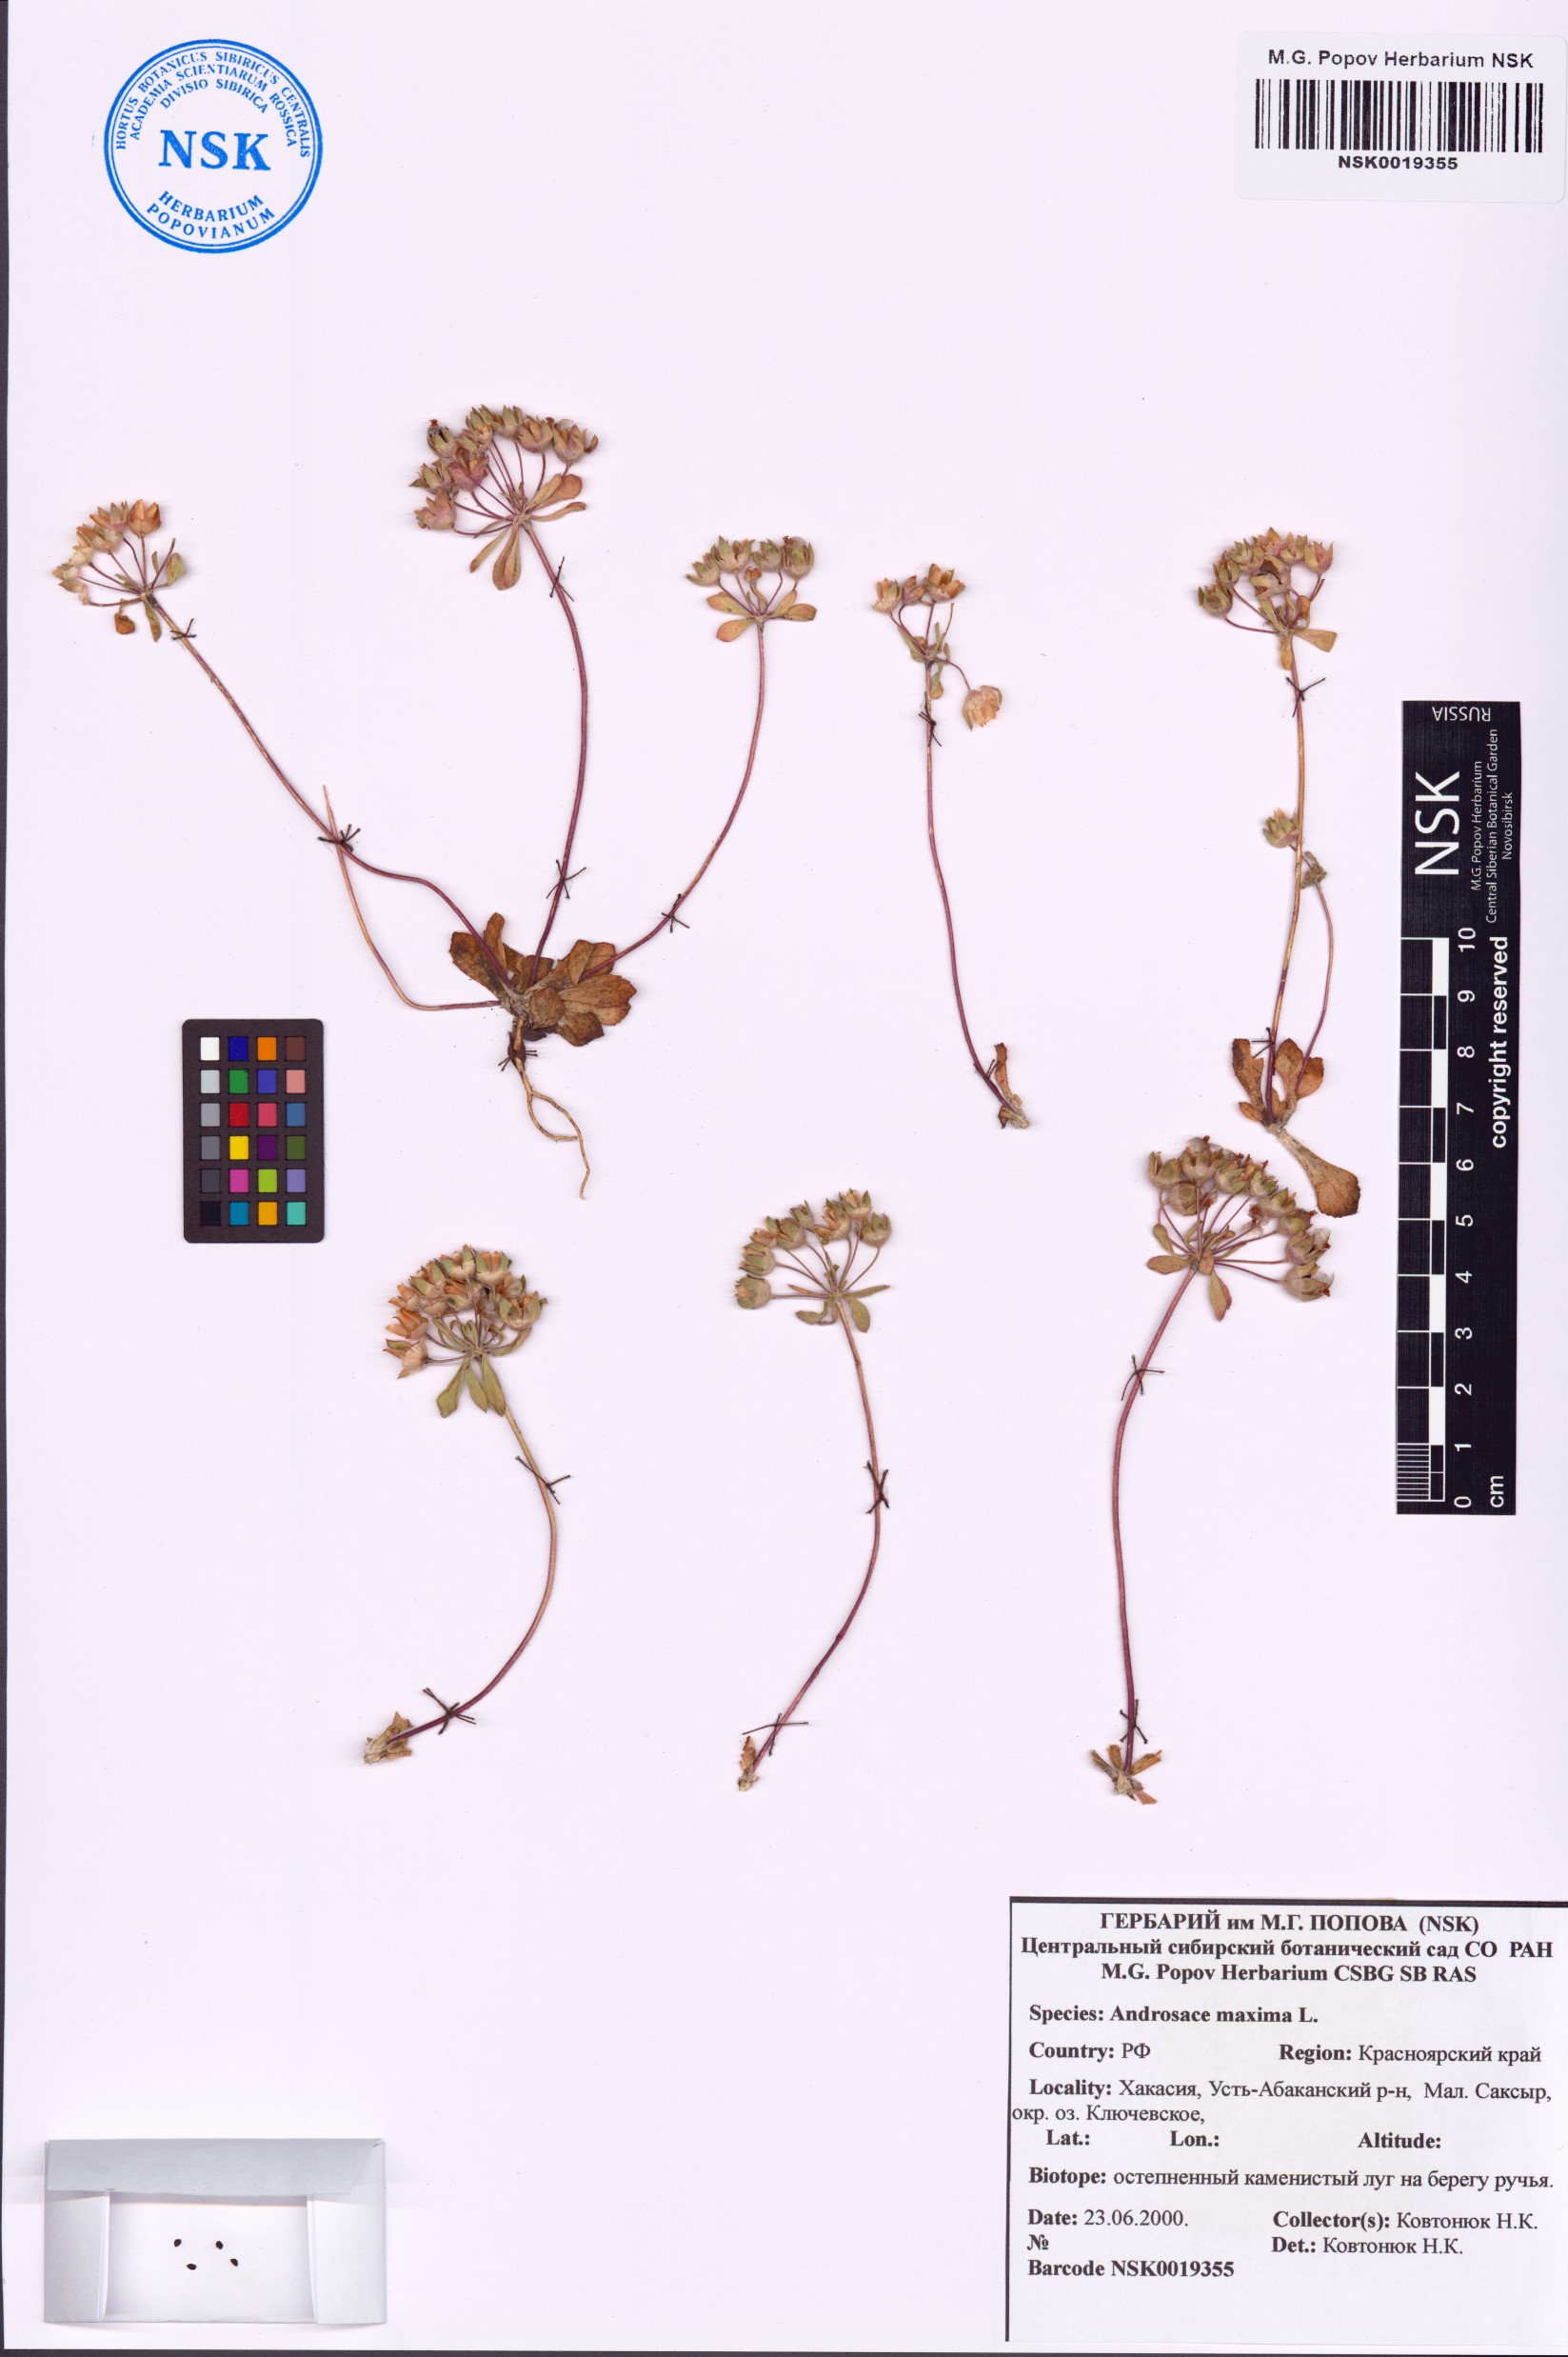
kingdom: Plantae
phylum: Tracheophyta
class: Magnoliopsida
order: Ericales
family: Primulaceae
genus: Androsace
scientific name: Androsace maxima
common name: Annual androsace
